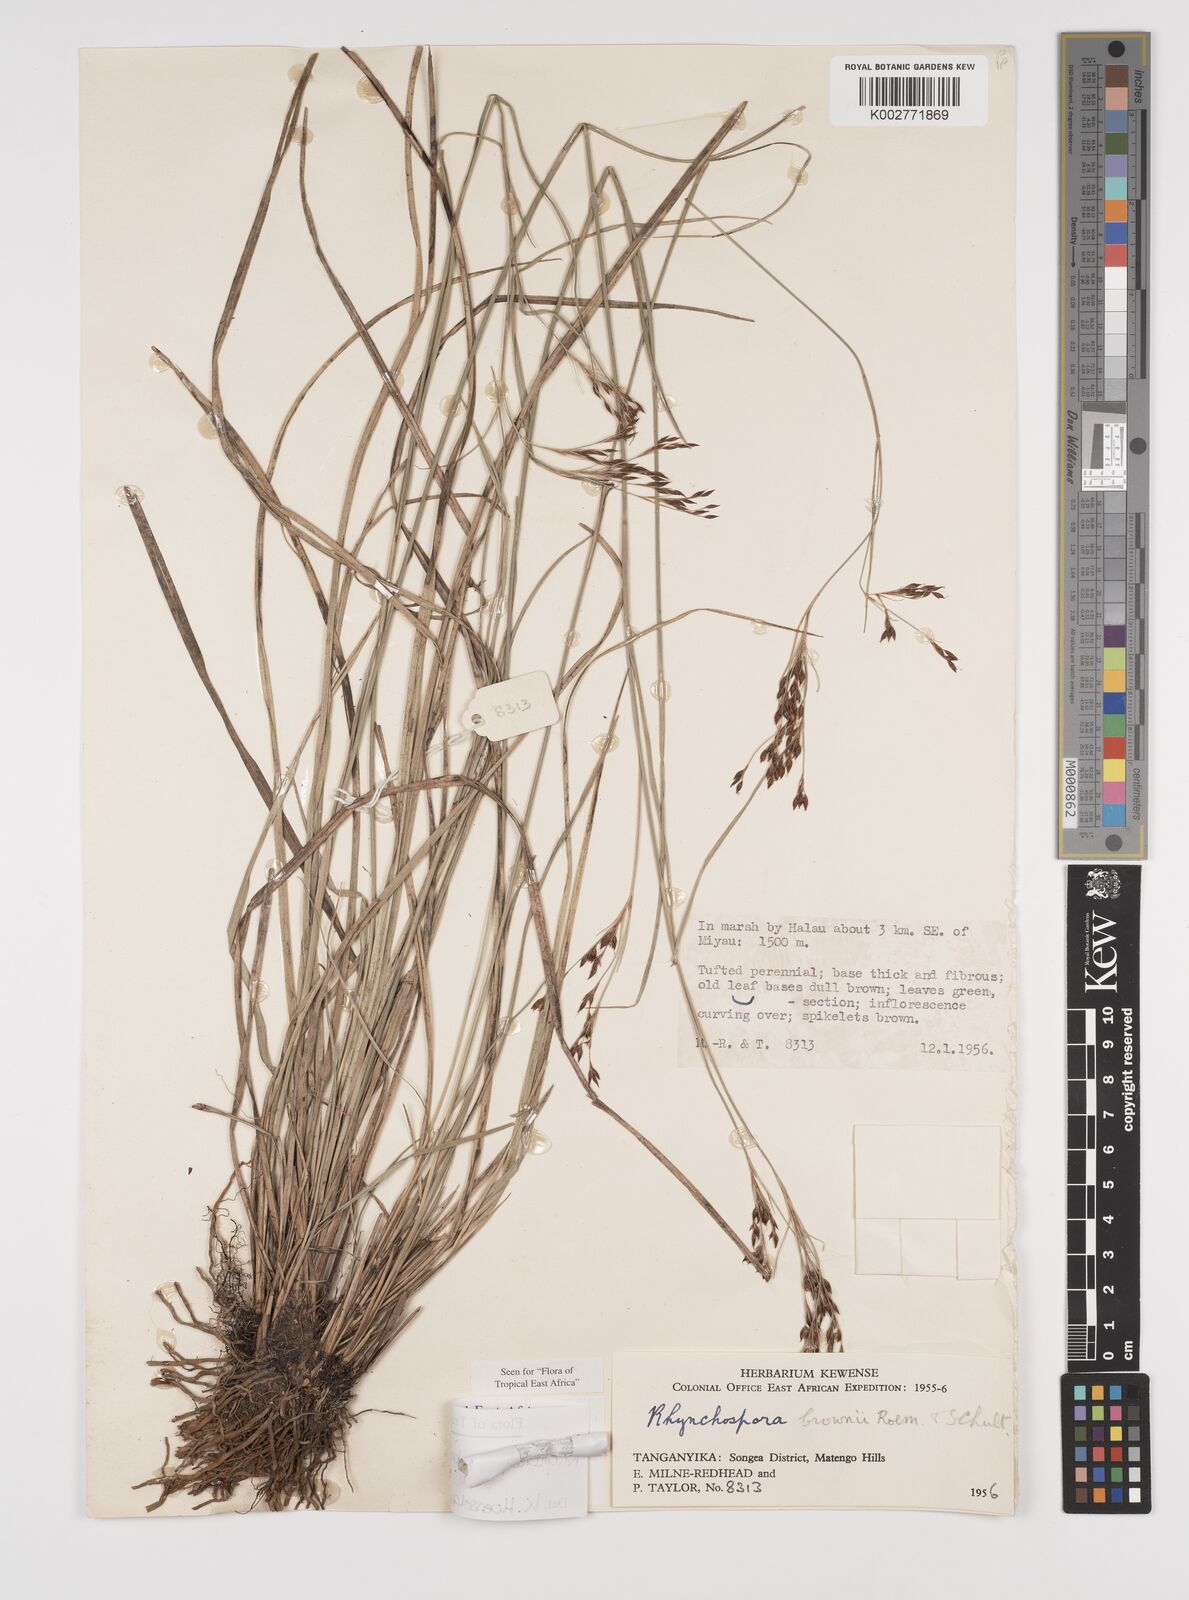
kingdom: Plantae
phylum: Tracheophyta
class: Liliopsida
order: Poales
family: Cyperaceae
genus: Rhynchospora
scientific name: Rhynchospora brownii
